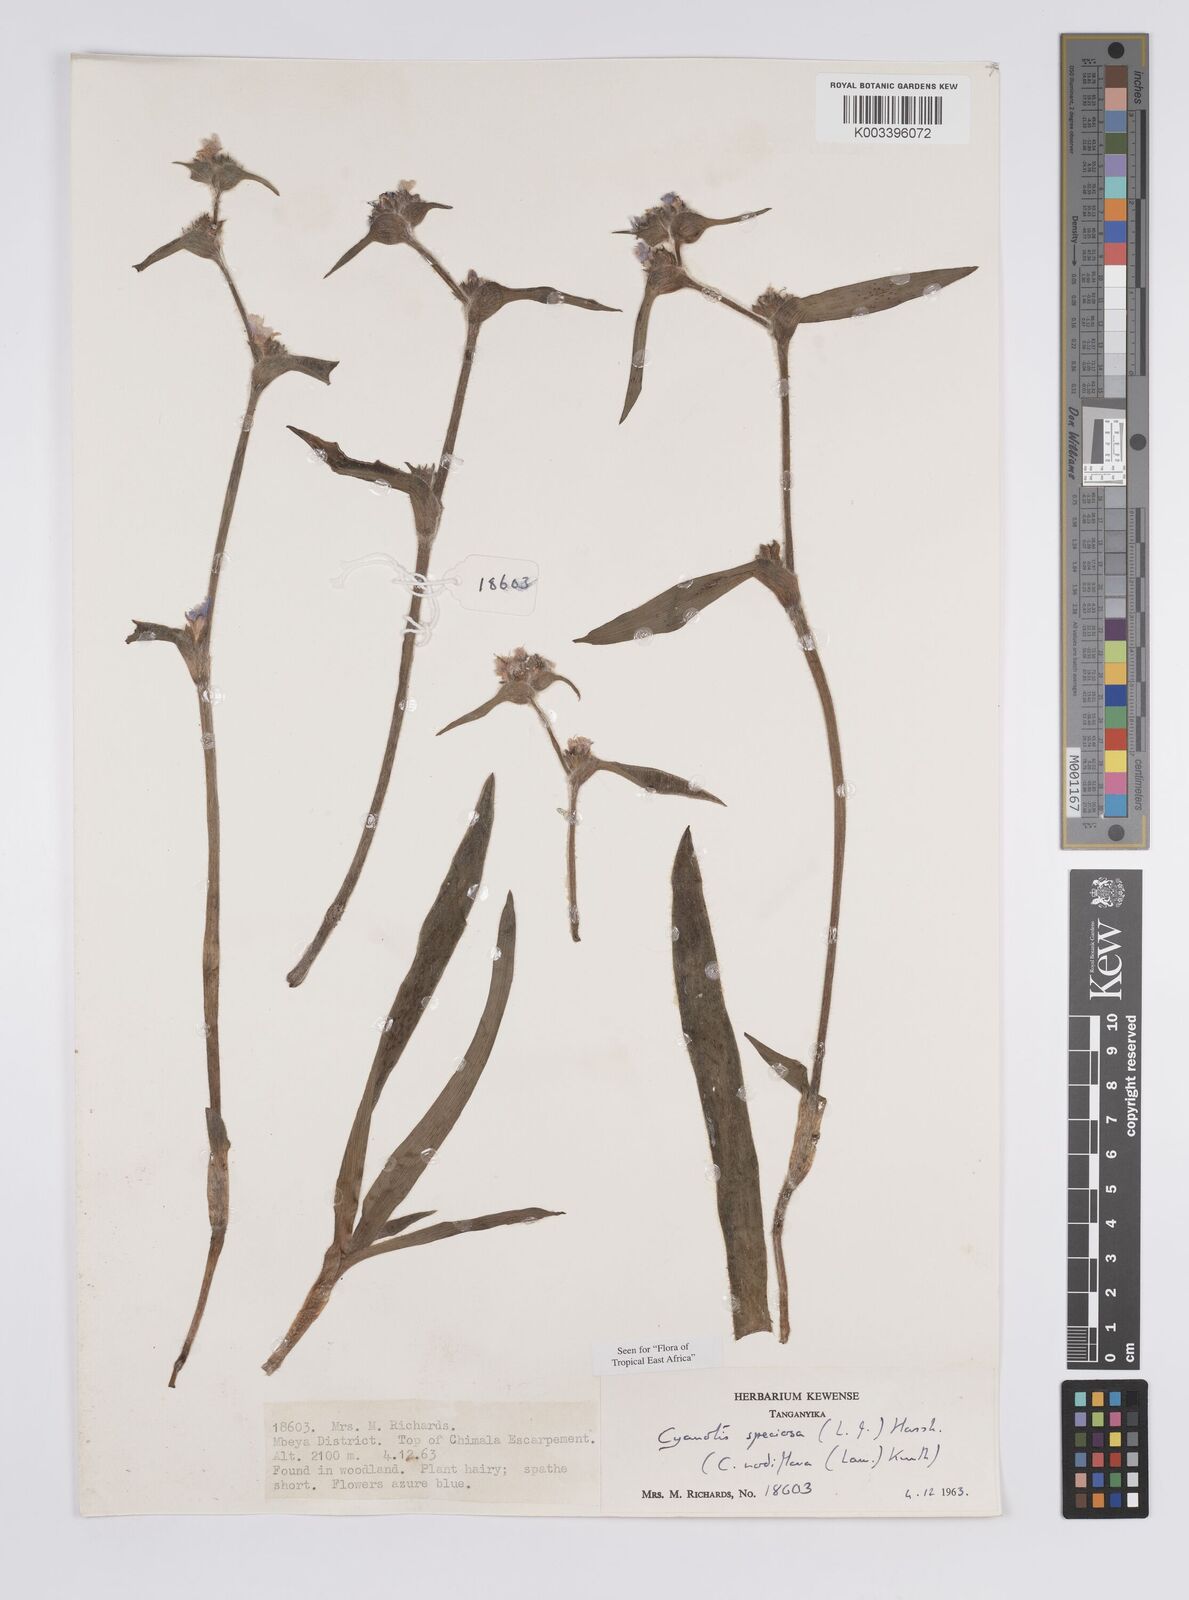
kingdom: Plantae
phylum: Tracheophyta
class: Liliopsida
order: Commelinales
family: Commelinaceae
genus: Cyanotis
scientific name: Cyanotis speciosa
